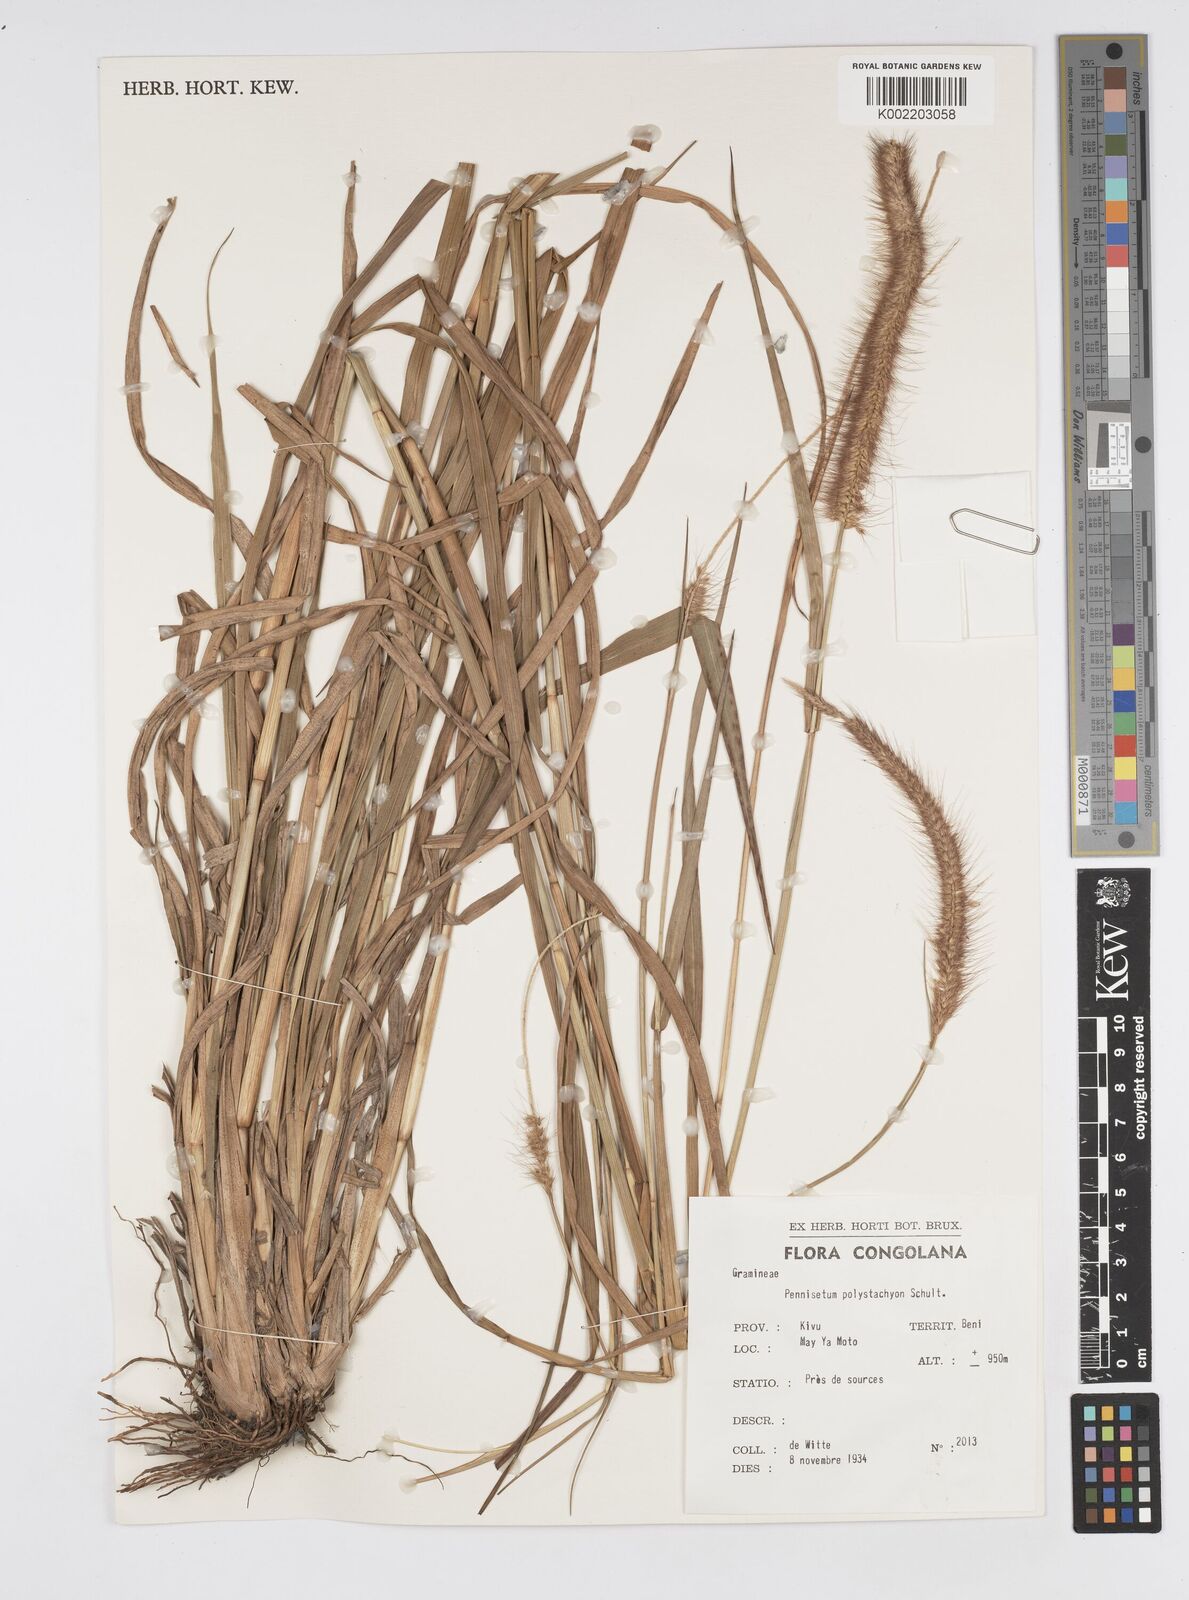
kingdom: Plantae
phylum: Tracheophyta
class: Liliopsida
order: Poales
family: Poaceae
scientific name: Poaceae
